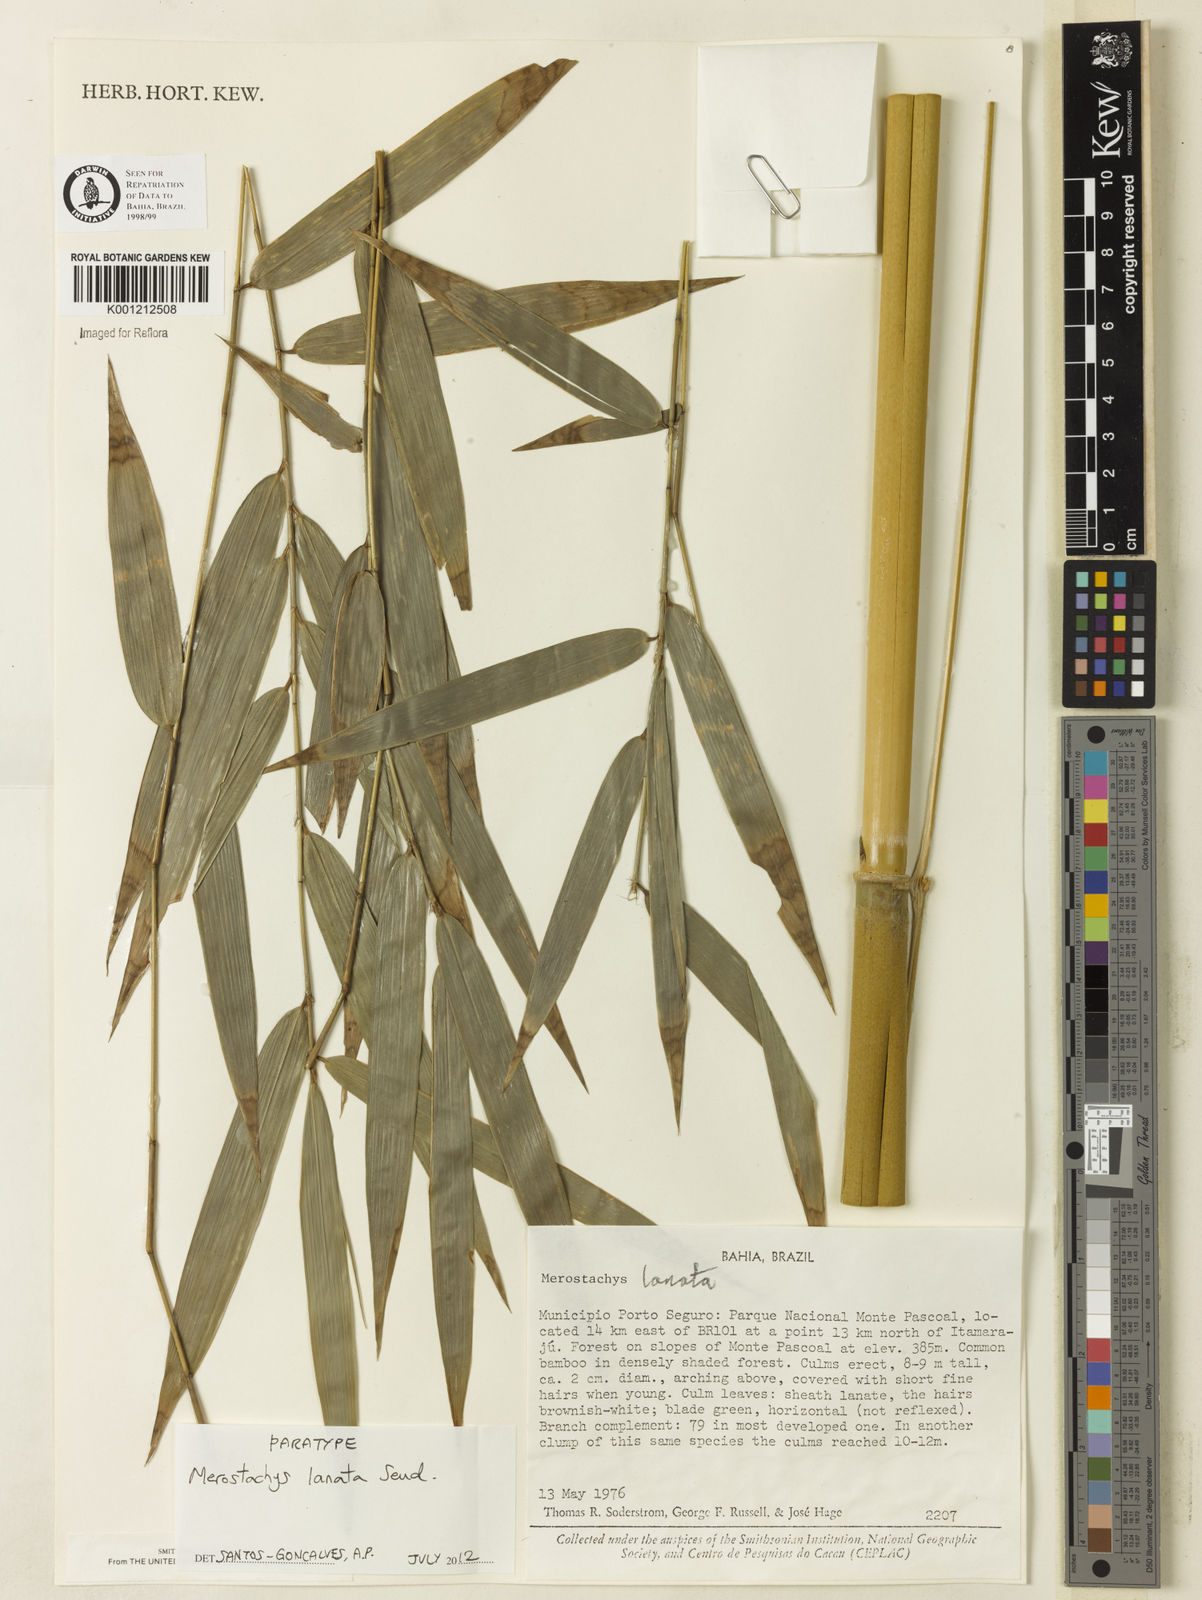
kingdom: Plantae
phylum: Tracheophyta
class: Liliopsida
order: Poales
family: Poaceae
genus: Merostachys
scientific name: Merostachys lanata
